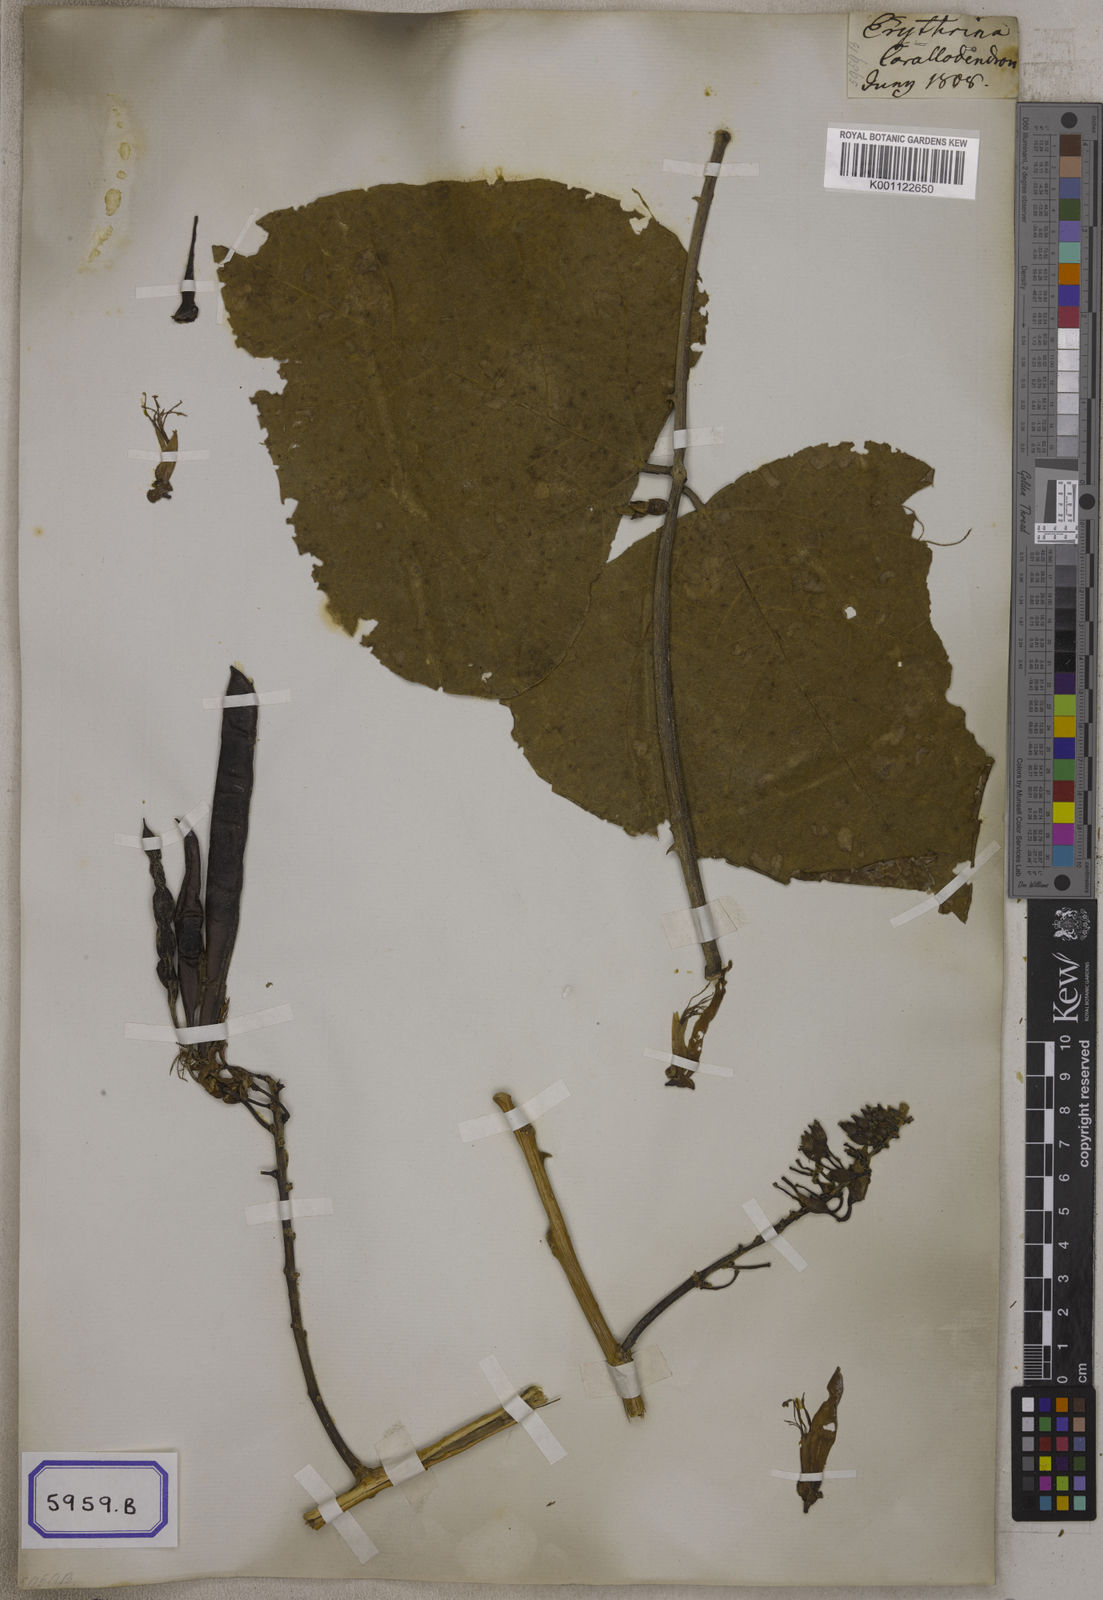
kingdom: Plantae
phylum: Tracheophyta
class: Magnoliopsida
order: Fabales
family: Fabaceae
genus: Erythrina
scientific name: Erythrina suberosa
